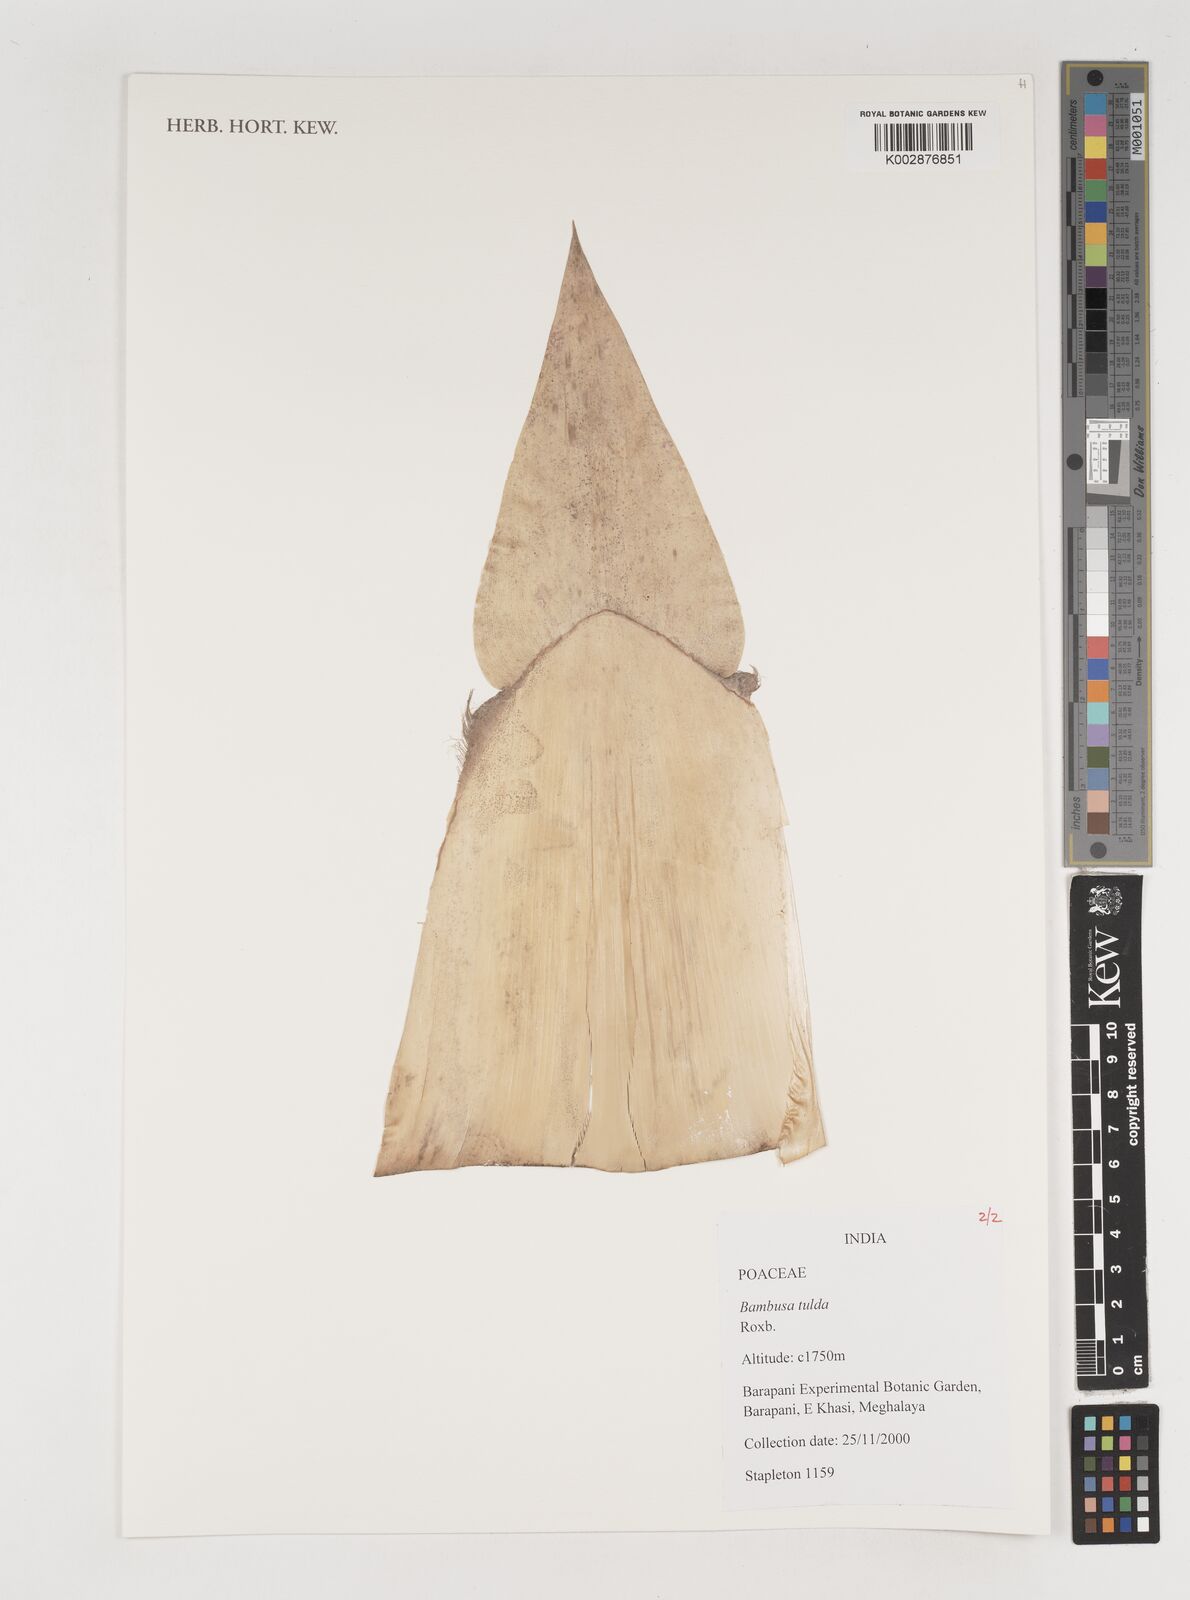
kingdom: Plantae
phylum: Tracheophyta
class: Liliopsida
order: Poales
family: Poaceae
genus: Bambusa
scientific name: Bambusa tulda
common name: Bengal bamboo
